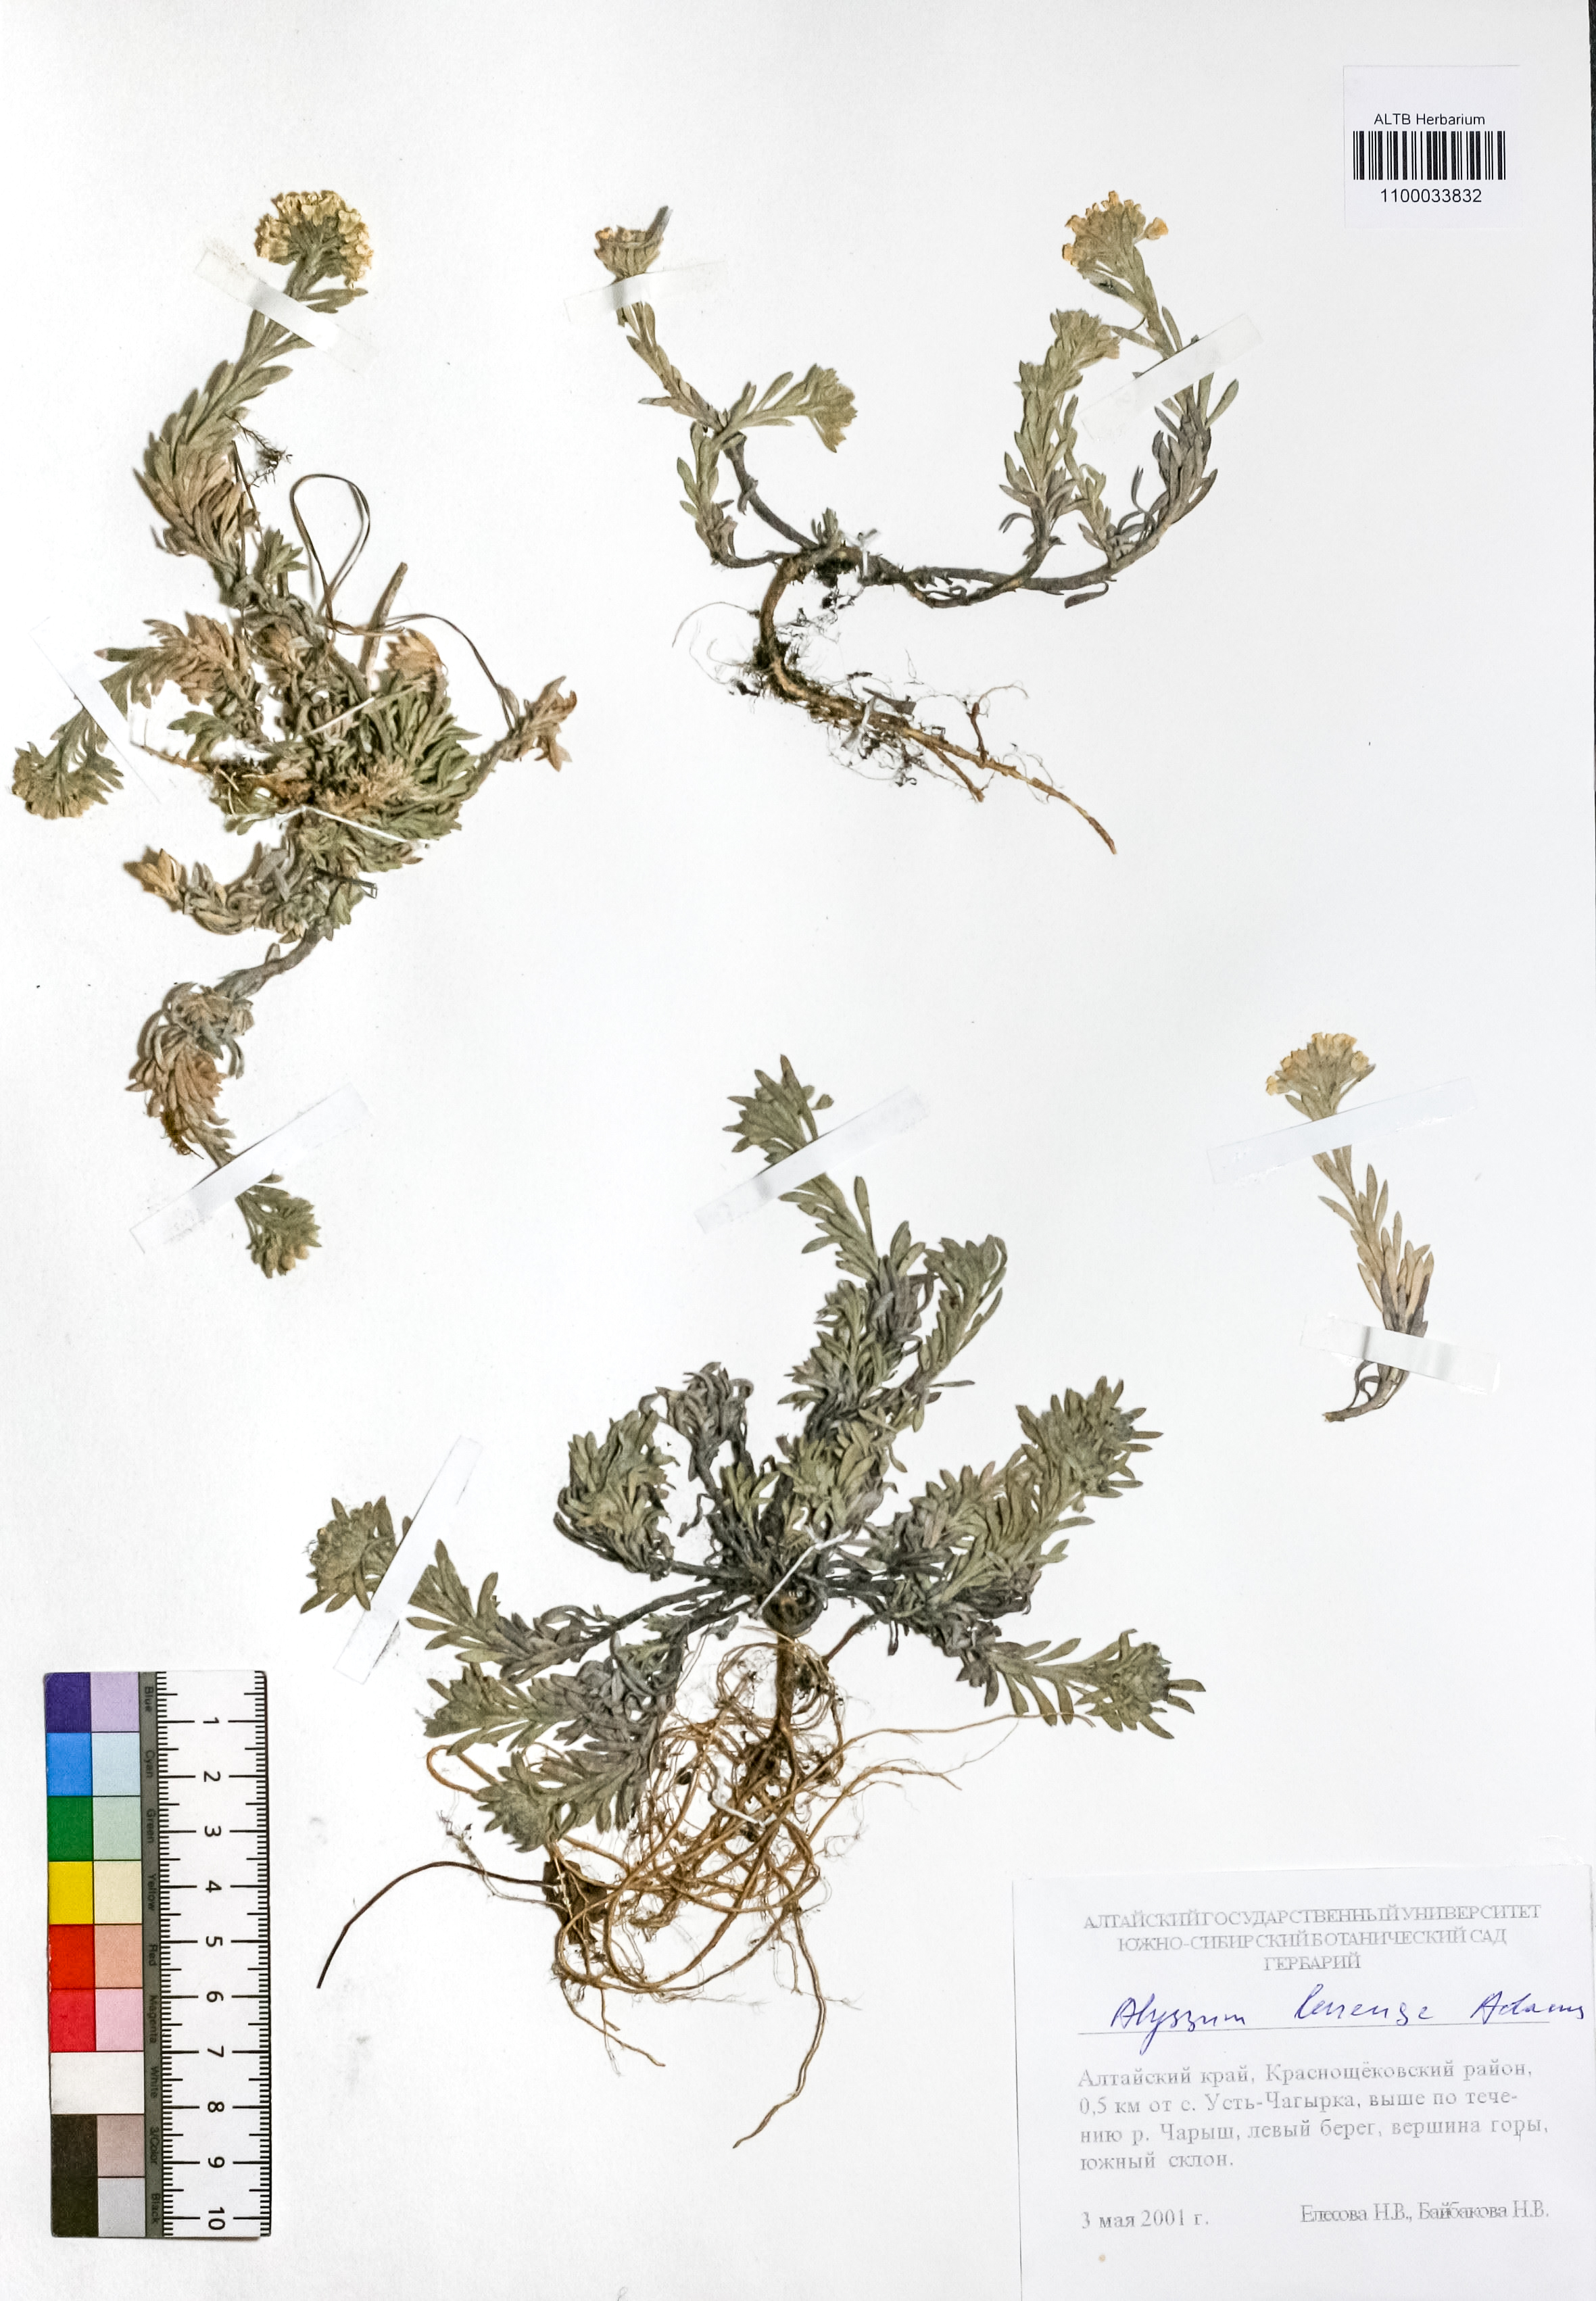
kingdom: Plantae
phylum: Tracheophyta
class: Magnoliopsida
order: Brassicales
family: Brassicaceae
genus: Alyssum
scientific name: Alyssum lenense
